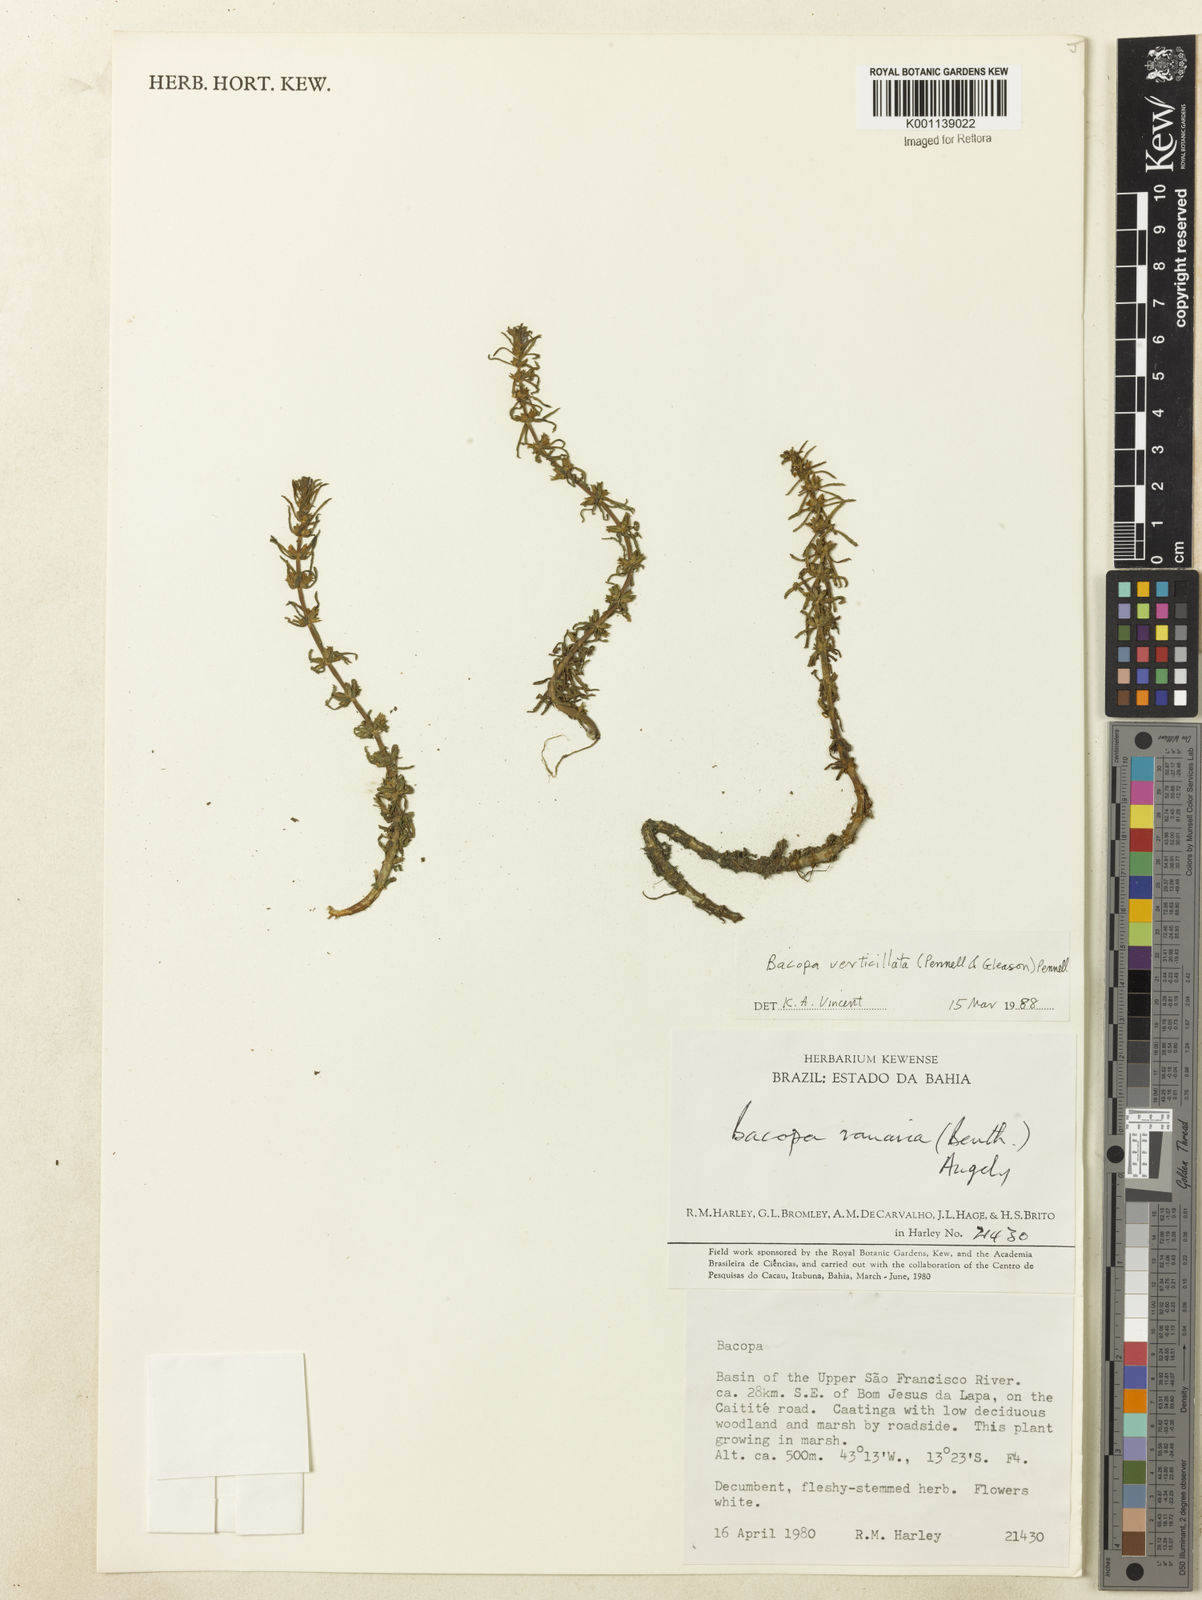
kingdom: Plantae
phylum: Tracheophyta
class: Magnoliopsida
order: Lamiales
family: Plantaginaceae
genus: Bacopa
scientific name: Bacopa verticillata
